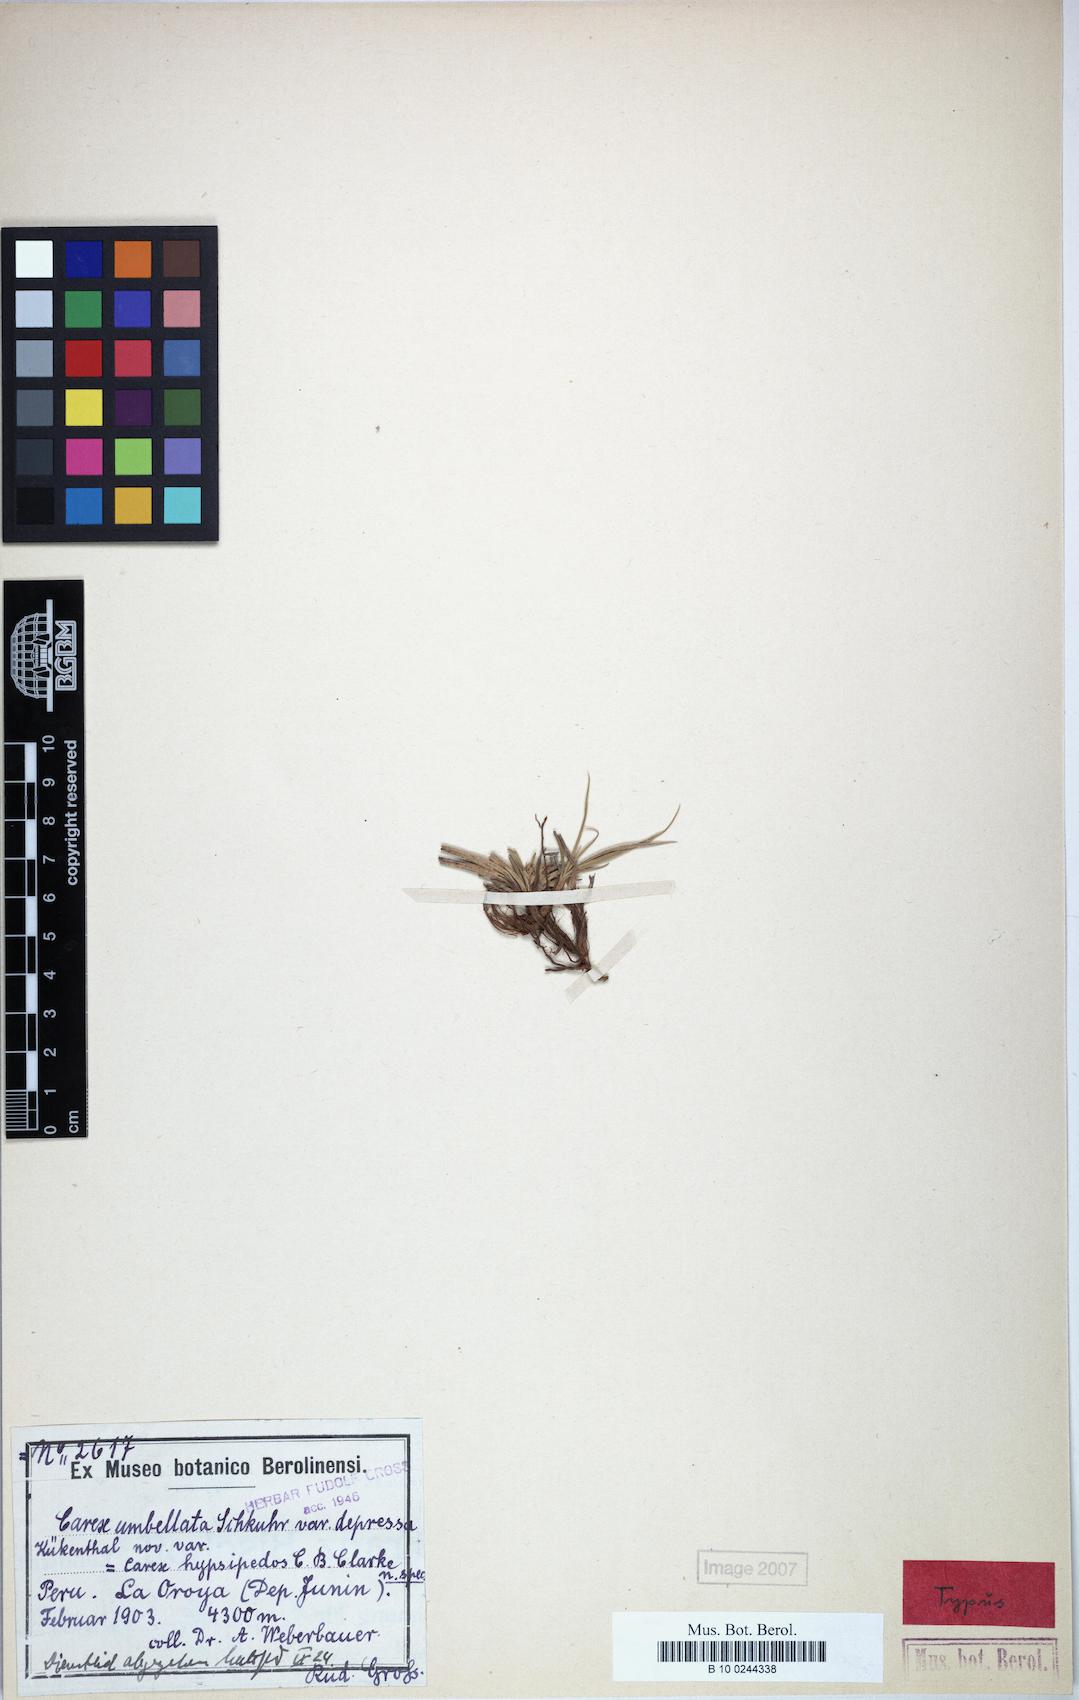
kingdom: Plantae
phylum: Tracheophyta
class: Liliopsida
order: Poales
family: Cyperaceae
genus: Carex
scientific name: Carex punicola
